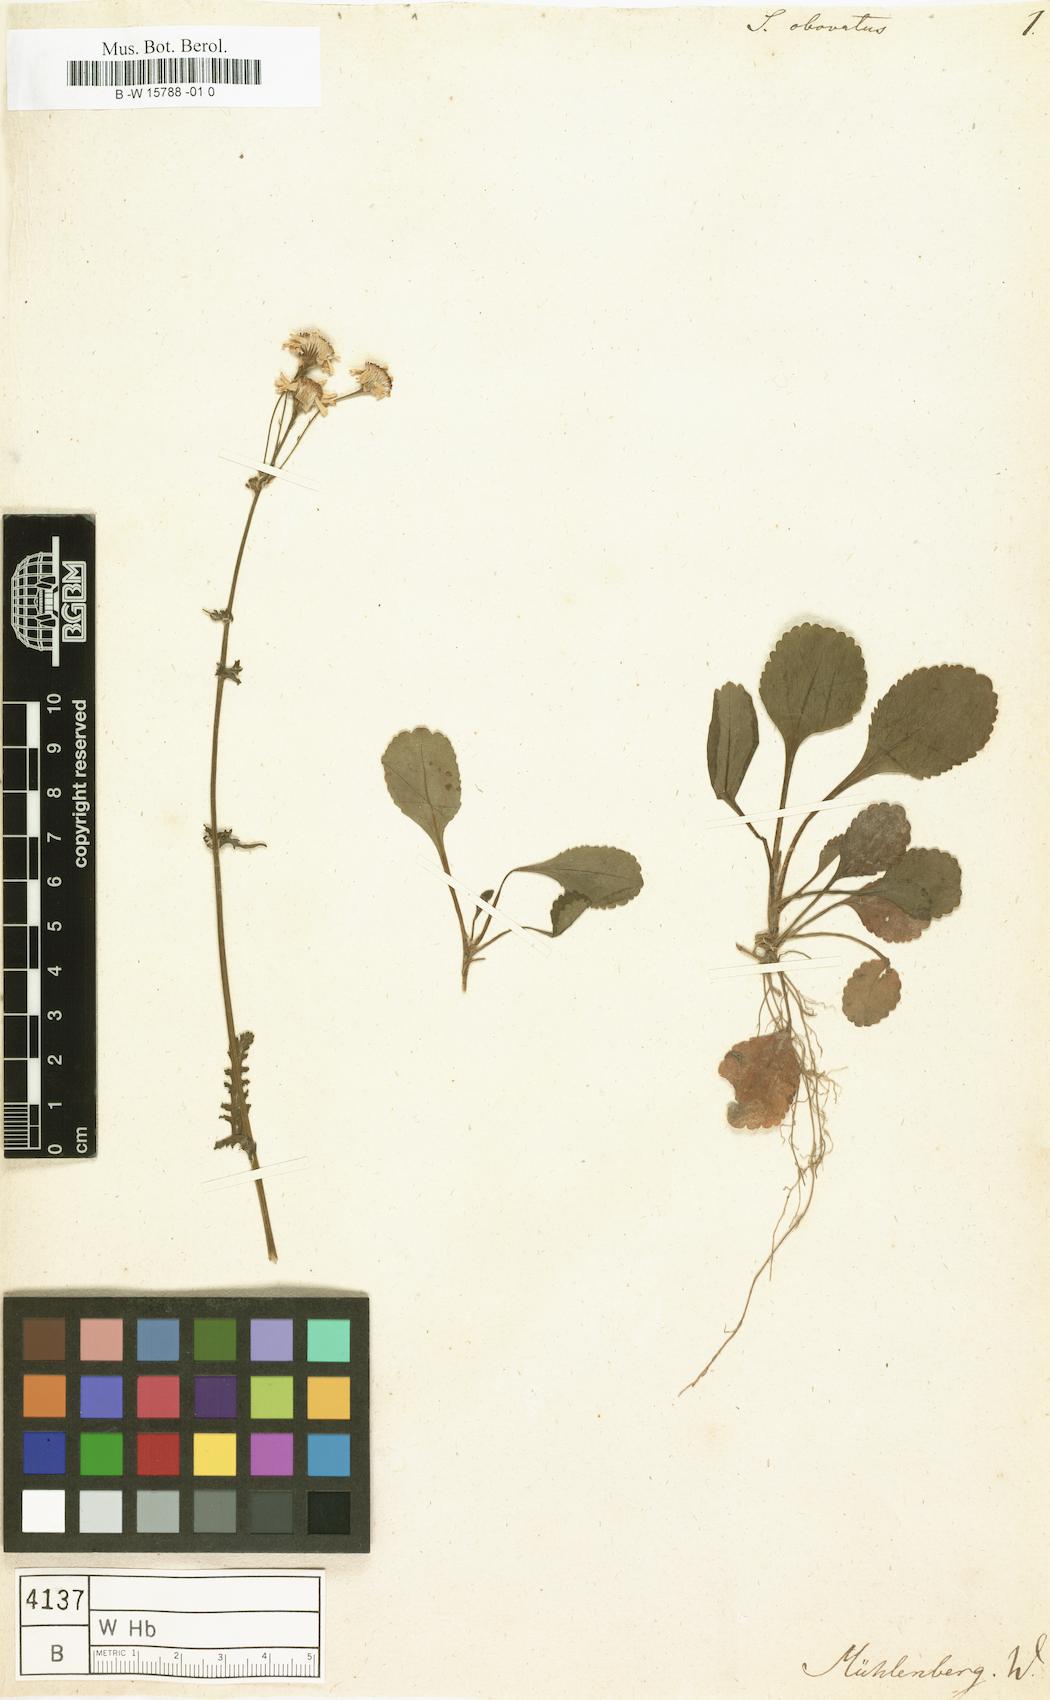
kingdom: Plantae
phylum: Tracheophyta
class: Magnoliopsida
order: Asterales
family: Asteraceae
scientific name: Asteraceae
